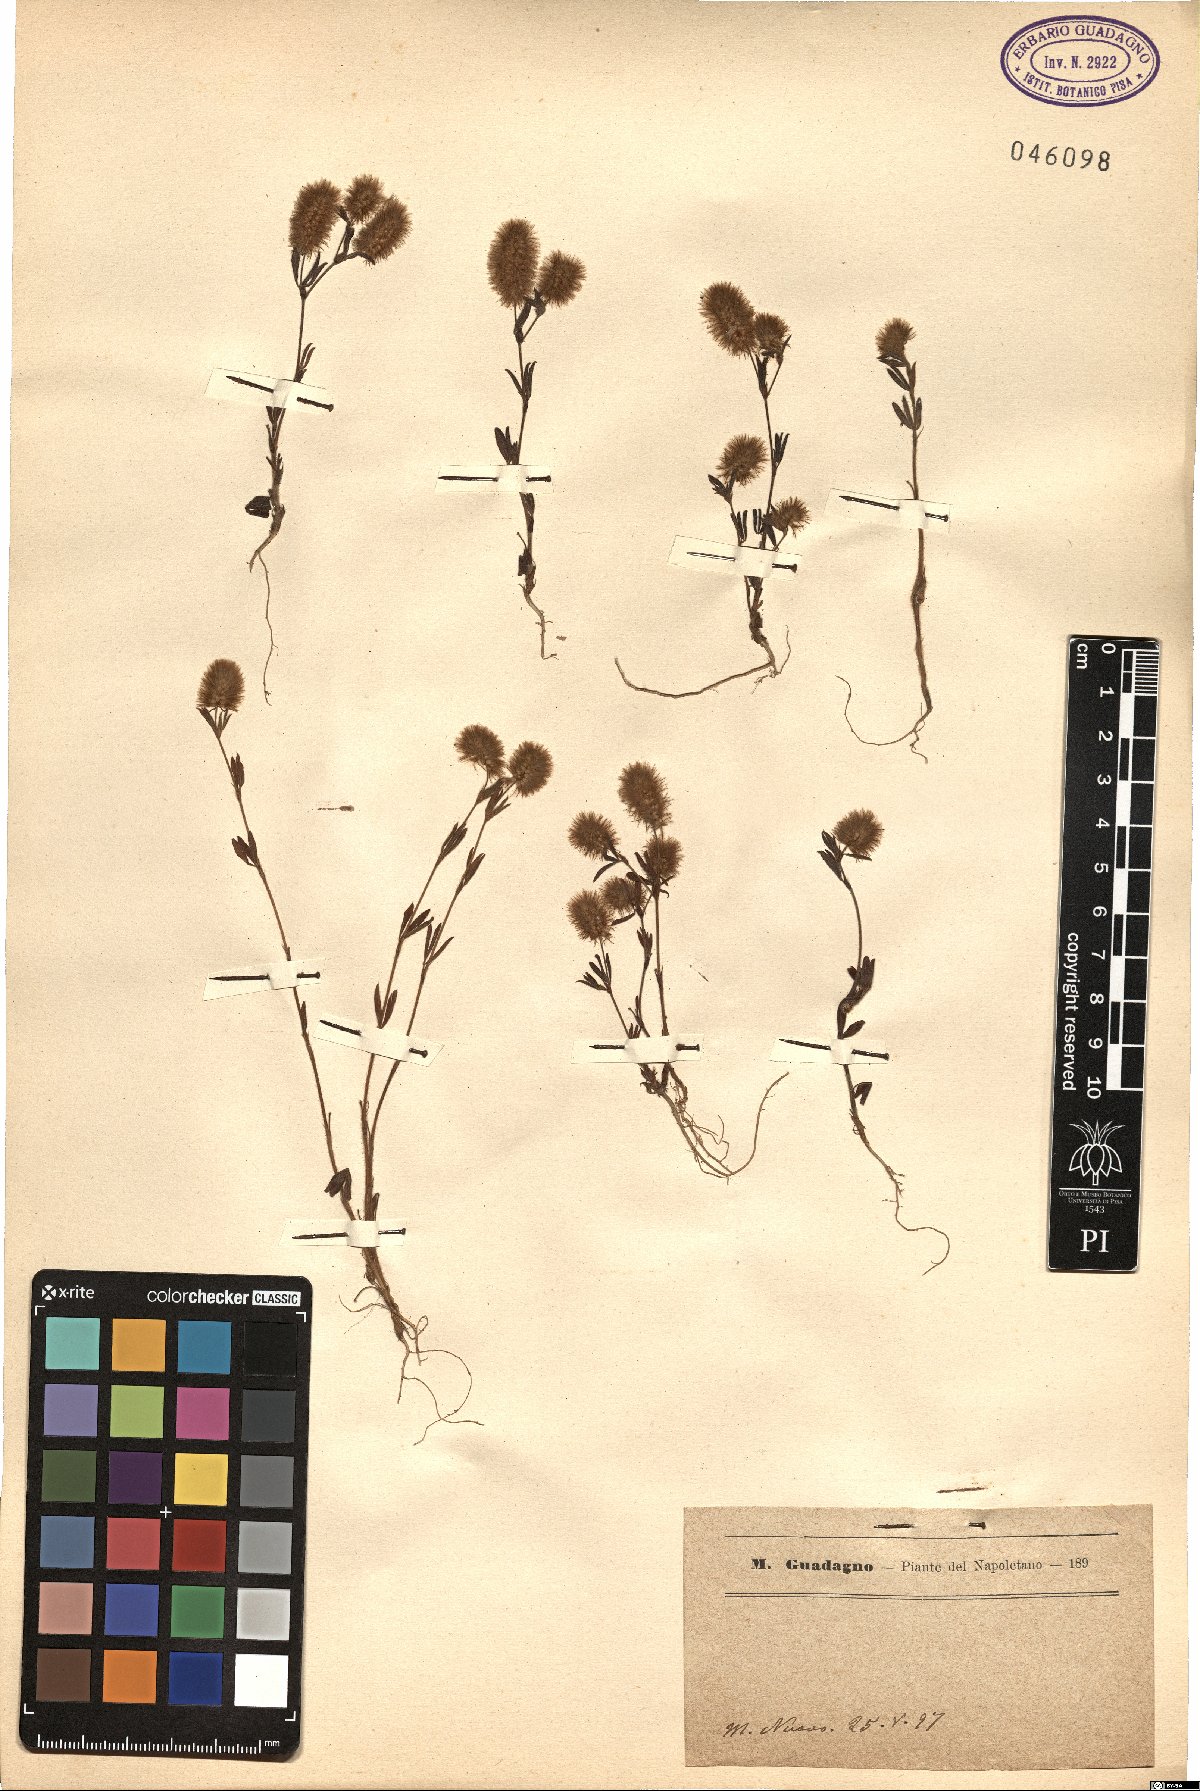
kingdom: Plantae
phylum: Tracheophyta
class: Magnoliopsida
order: Fabales
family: Fabaceae
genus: Trifolium
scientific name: Trifolium
